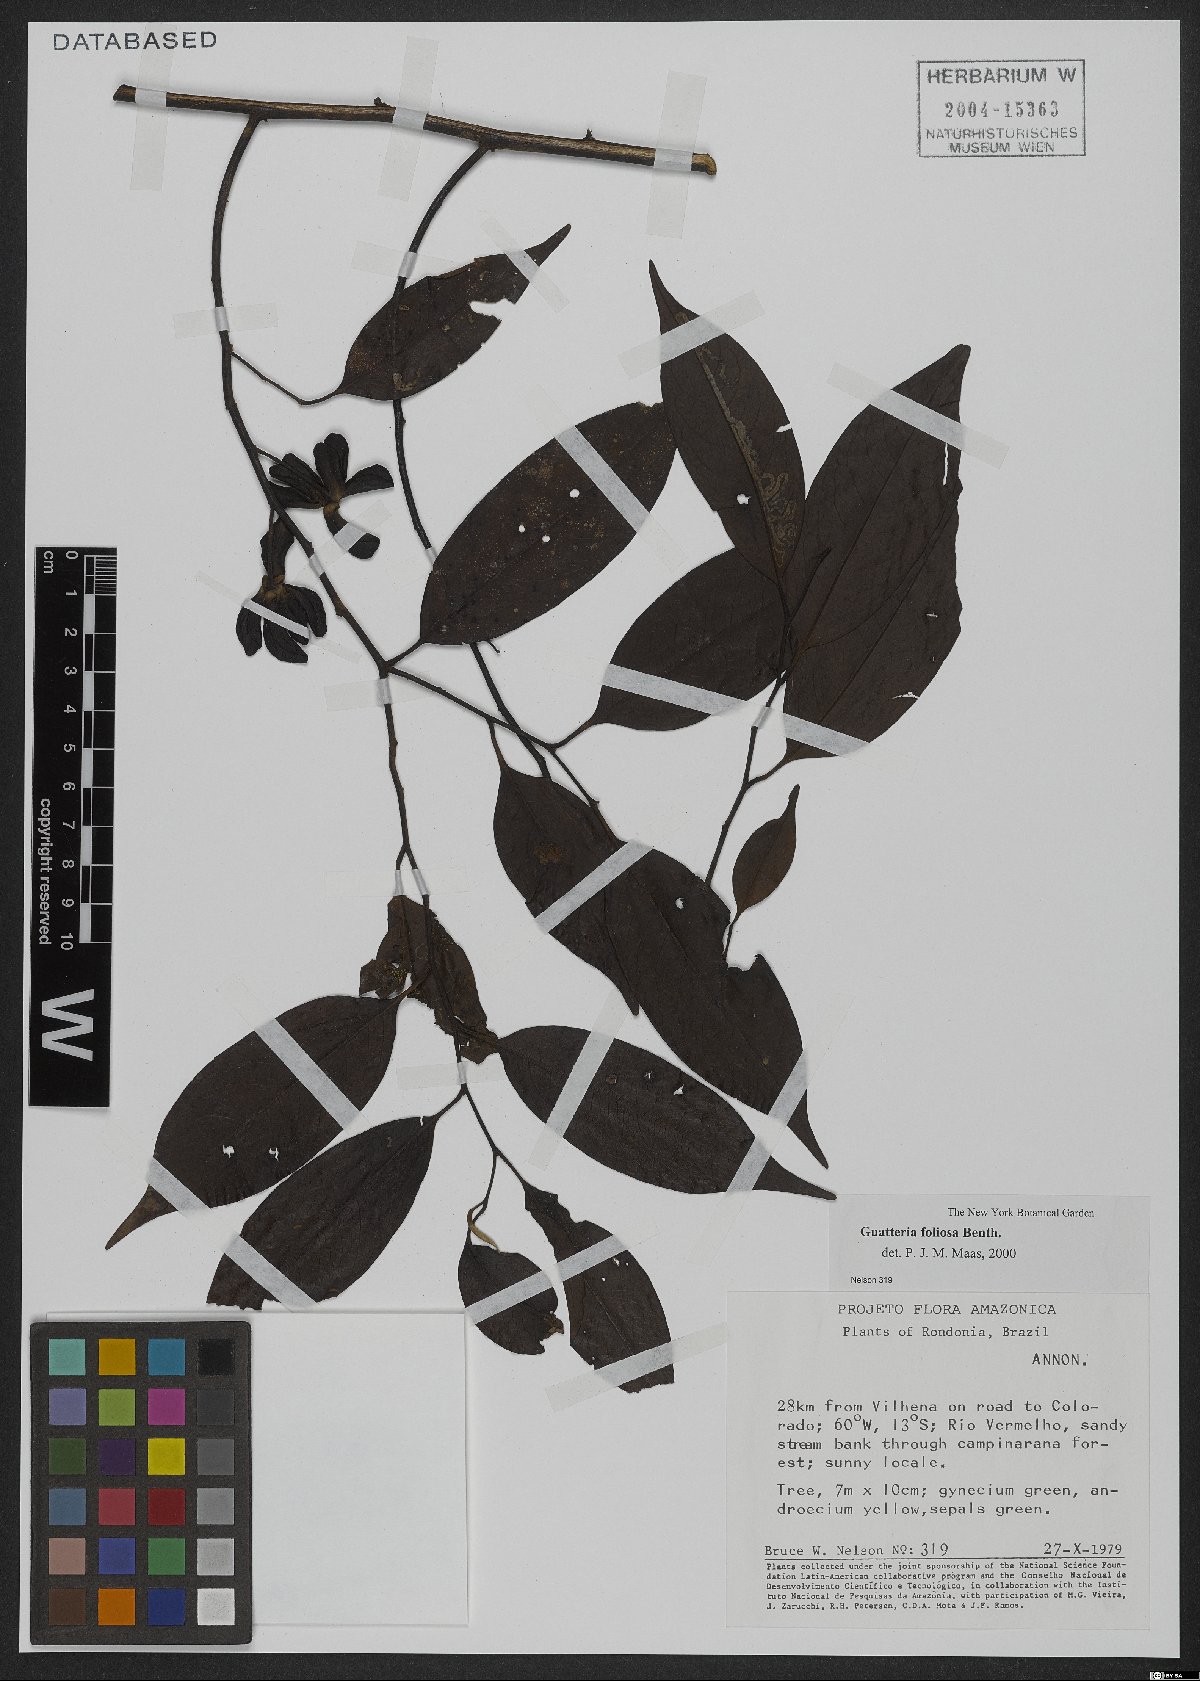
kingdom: Plantae
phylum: Tracheophyta
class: Magnoliopsida
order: Magnoliales
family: Annonaceae
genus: Guatteria
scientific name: Guatteria foliosa
